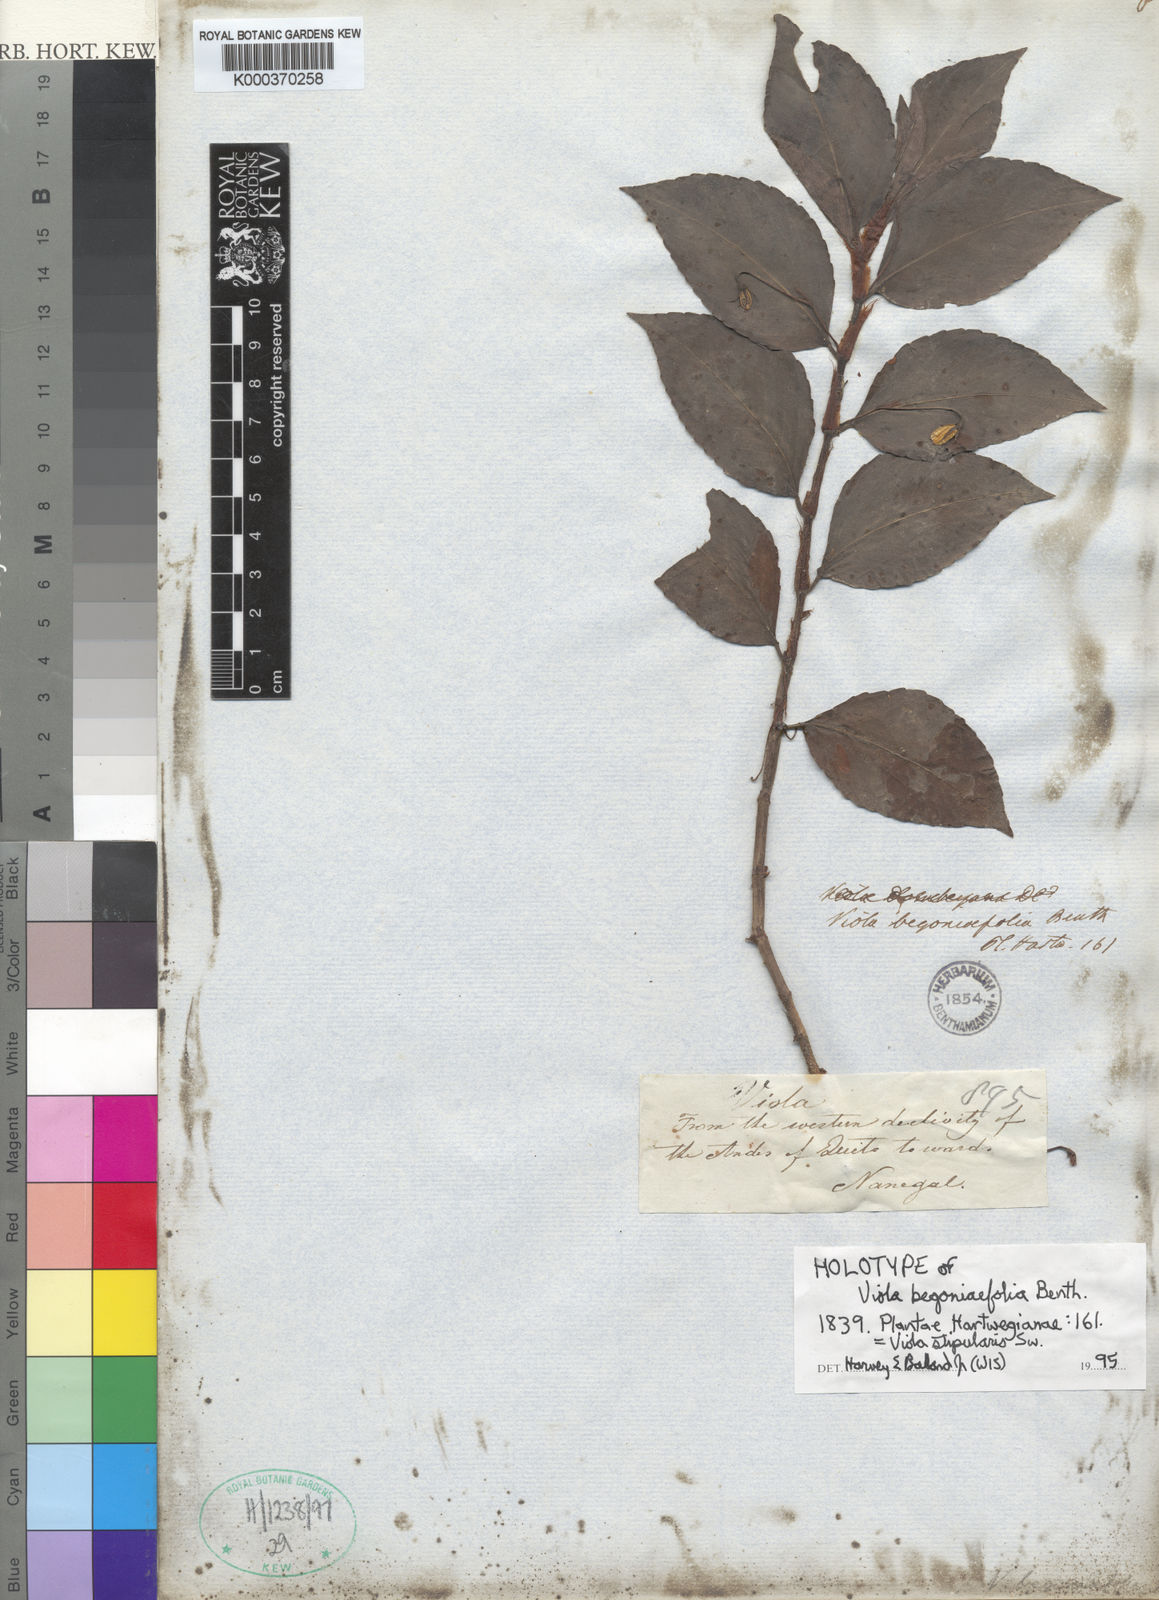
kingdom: Plantae
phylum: Tracheophyta
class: Magnoliopsida
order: Malpighiales
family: Violaceae
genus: Viola
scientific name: Viola stipularis
